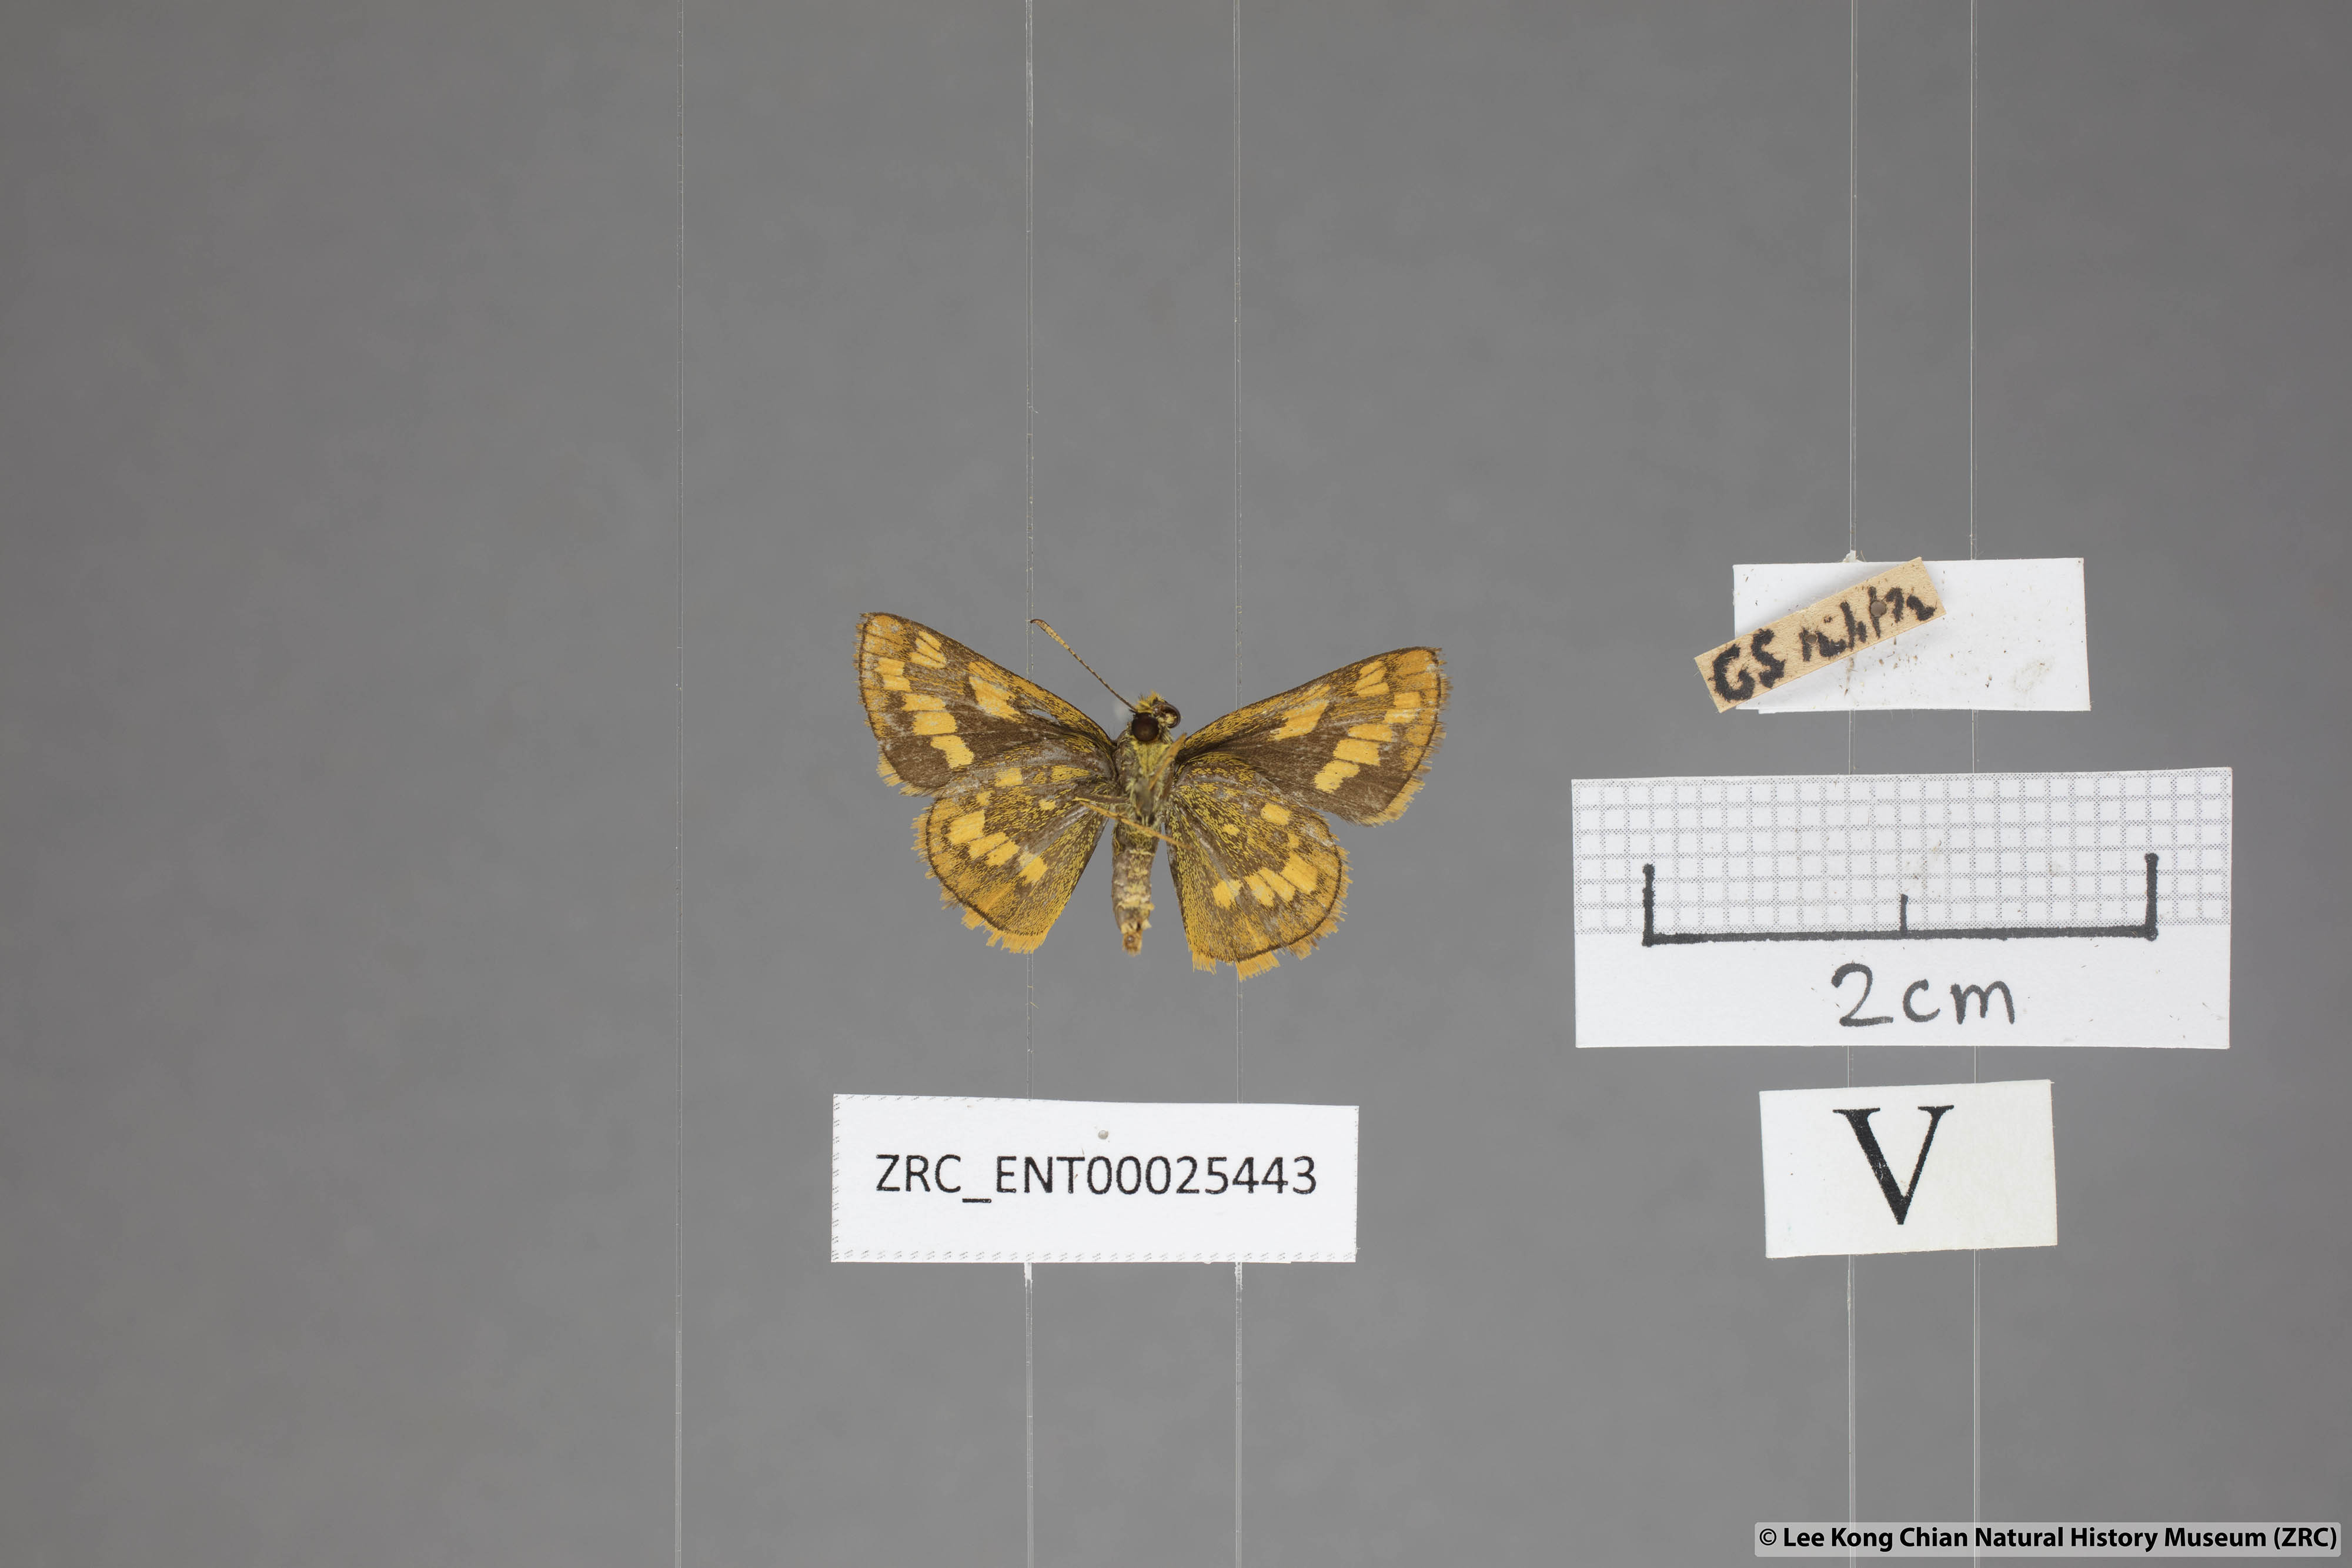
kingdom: Animalia
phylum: Arthropoda
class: Insecta
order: Lepidoptera
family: Hesperiidae
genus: Potanthus
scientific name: Potanthus omaha
